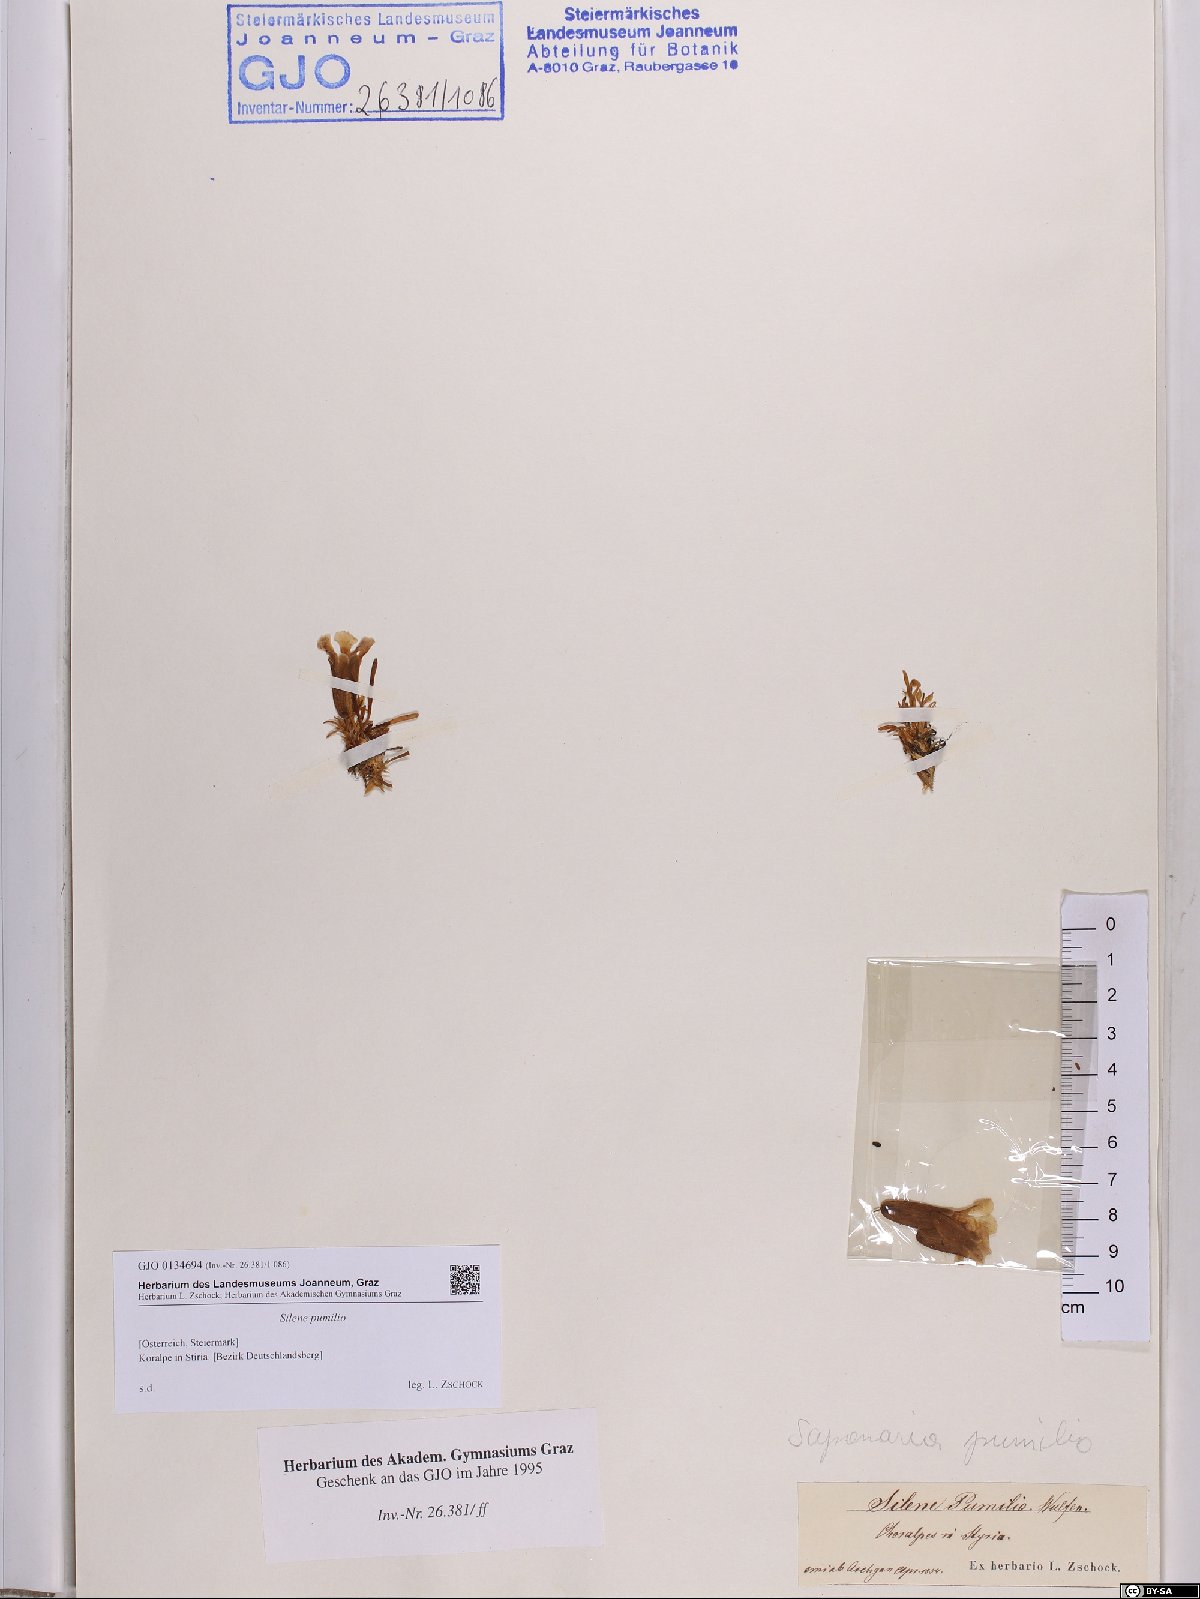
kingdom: Plantae
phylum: Tracheophyta
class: Magnoliopsida
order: Caryophyllales
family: Caryophyllaceae
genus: Saponaria
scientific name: Saponaria pumila
